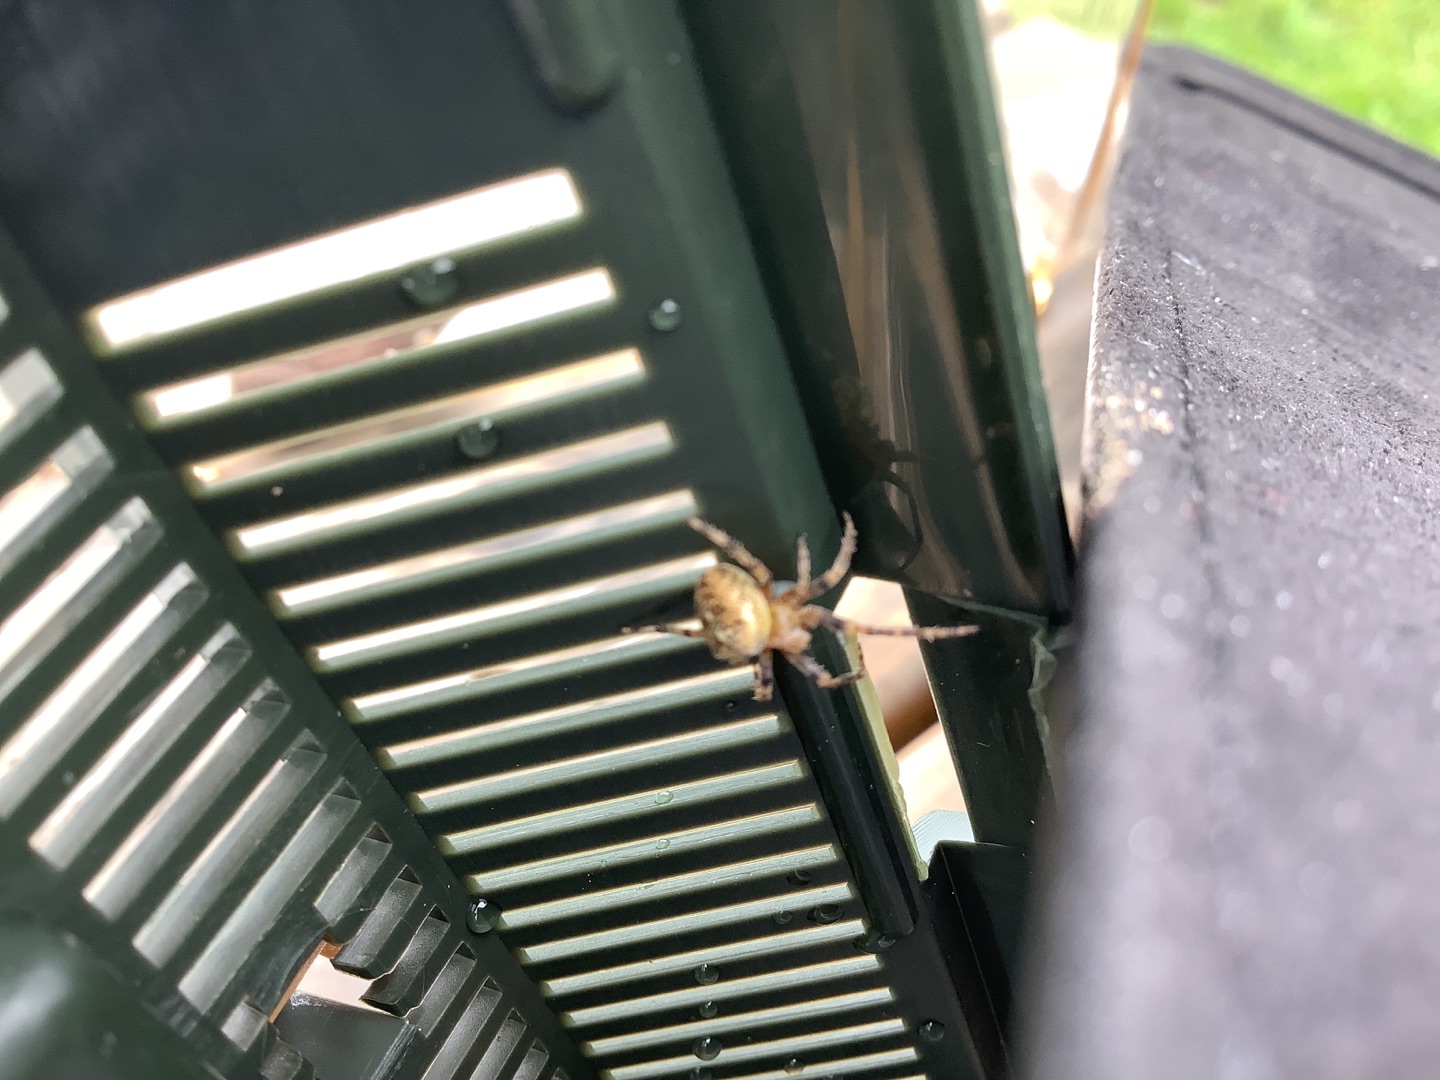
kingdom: Animalia
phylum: Arthropoda
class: Arachnida
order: Araneae
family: Araneidae
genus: Araneus
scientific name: Araneus diadematus
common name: Korsedderkop
